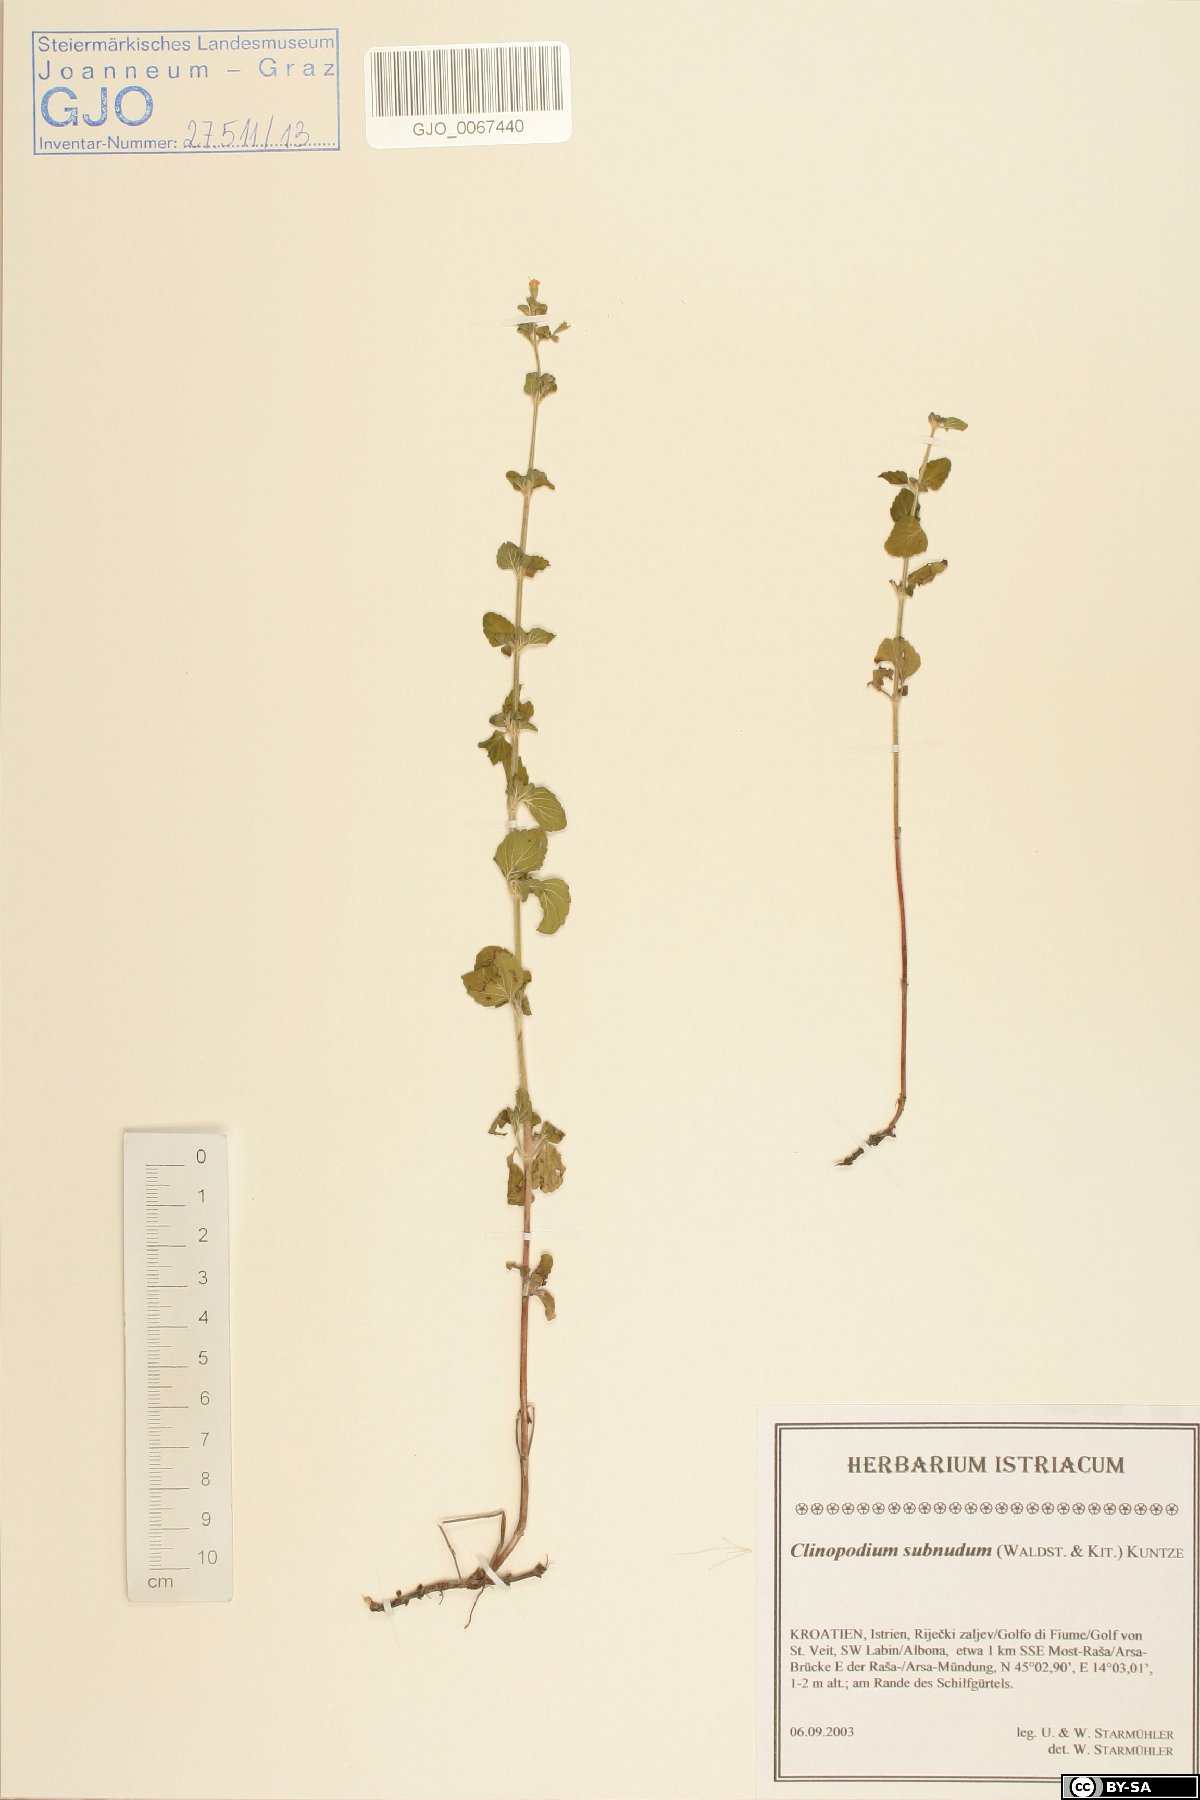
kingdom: Plantae
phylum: Tracheophyta
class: Magnoliopsida
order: Lamiales
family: Lamiaceae
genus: Clinopodium
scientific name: Clinopodium nepeta
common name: Lesser calamint
